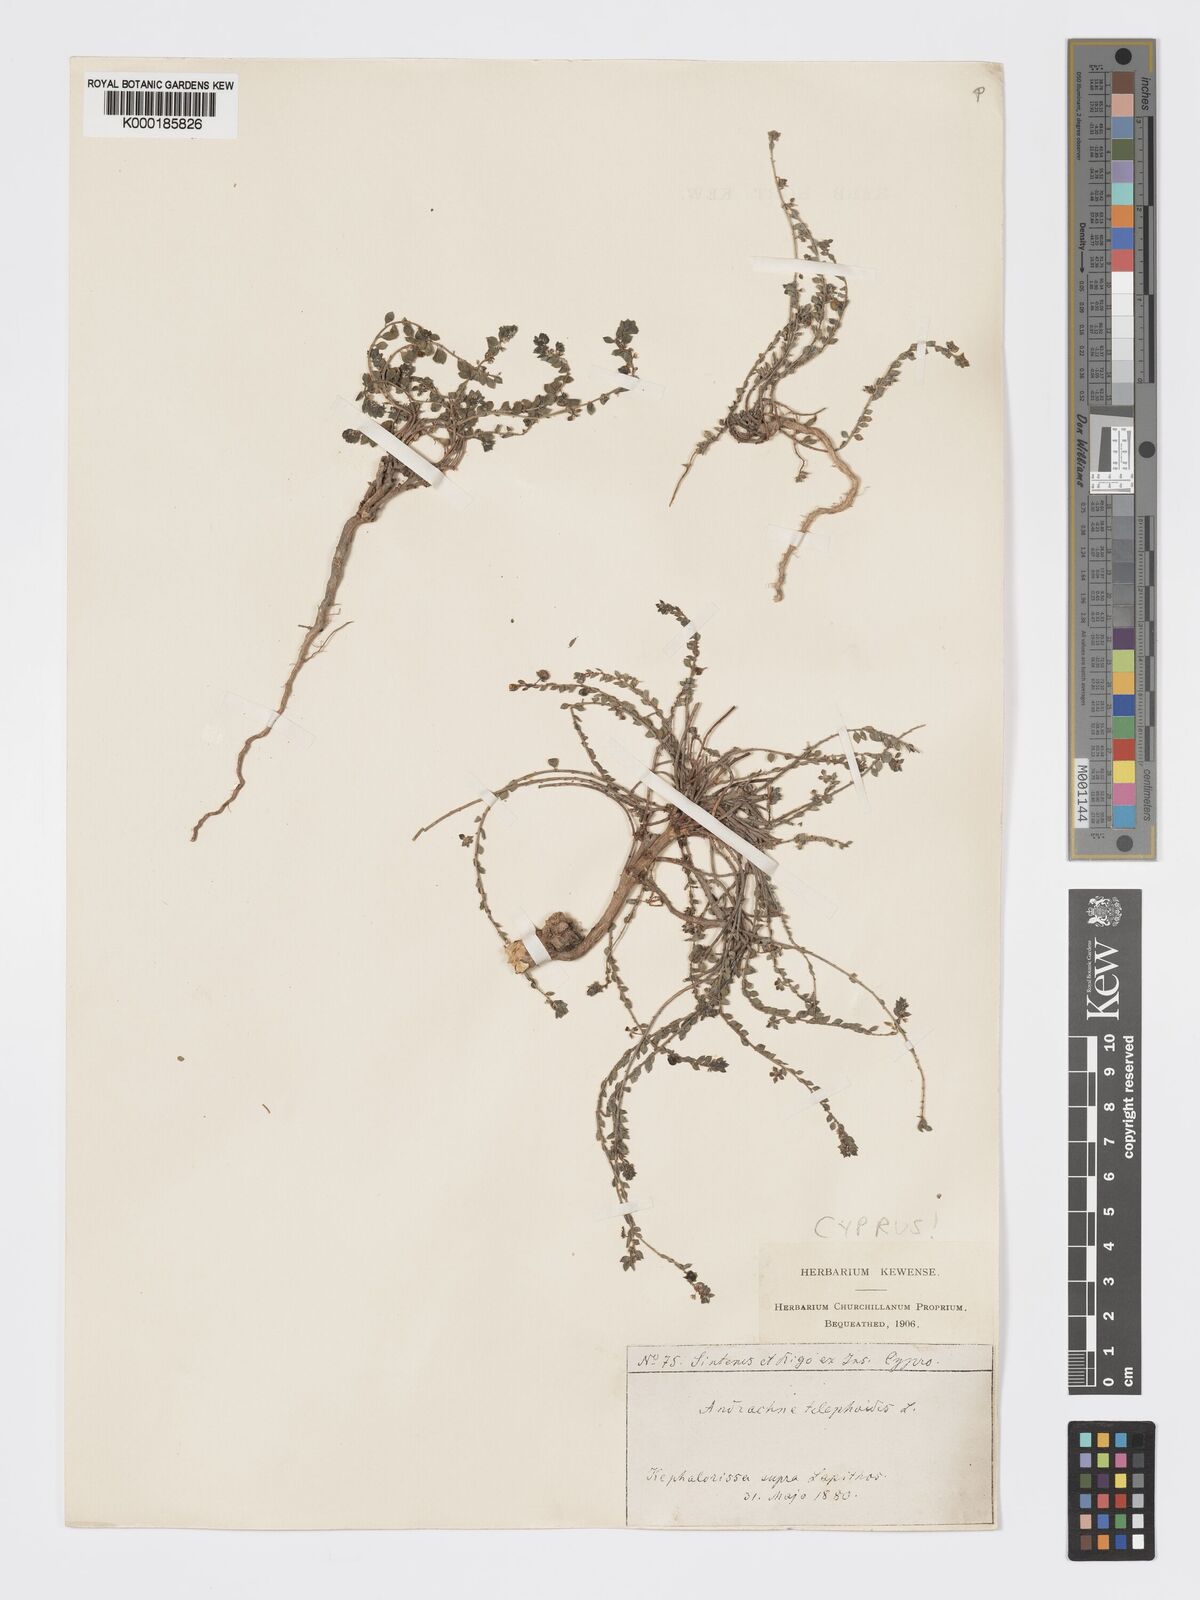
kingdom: Plantae
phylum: Tracheophyta
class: Magnoliopsida
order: Malpighiales
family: Phyllanthaceae
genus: Andrachne
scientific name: Andrachne telephioides
